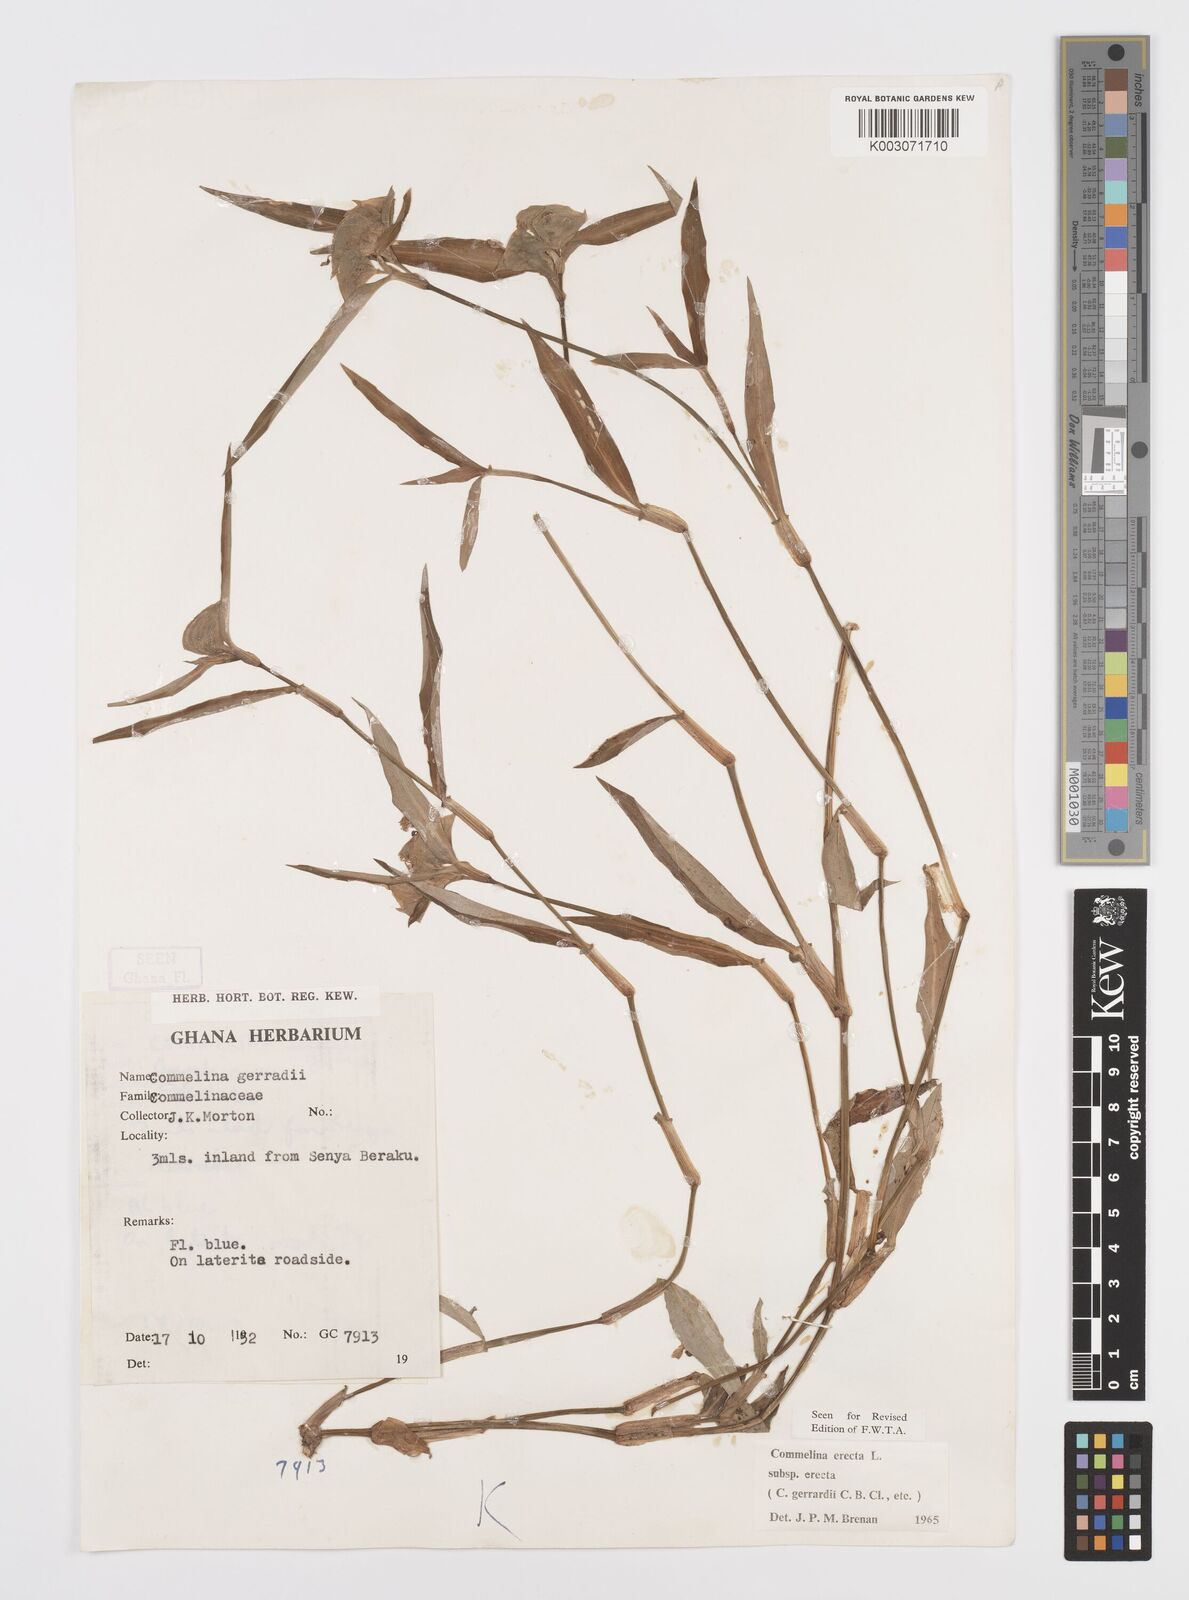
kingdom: Plantae
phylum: Tracheophyta
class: Liliopsida
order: Commelinales
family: Commelinaceae
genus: Commelina
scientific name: Commelina erecta
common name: Blousel blommetjie
